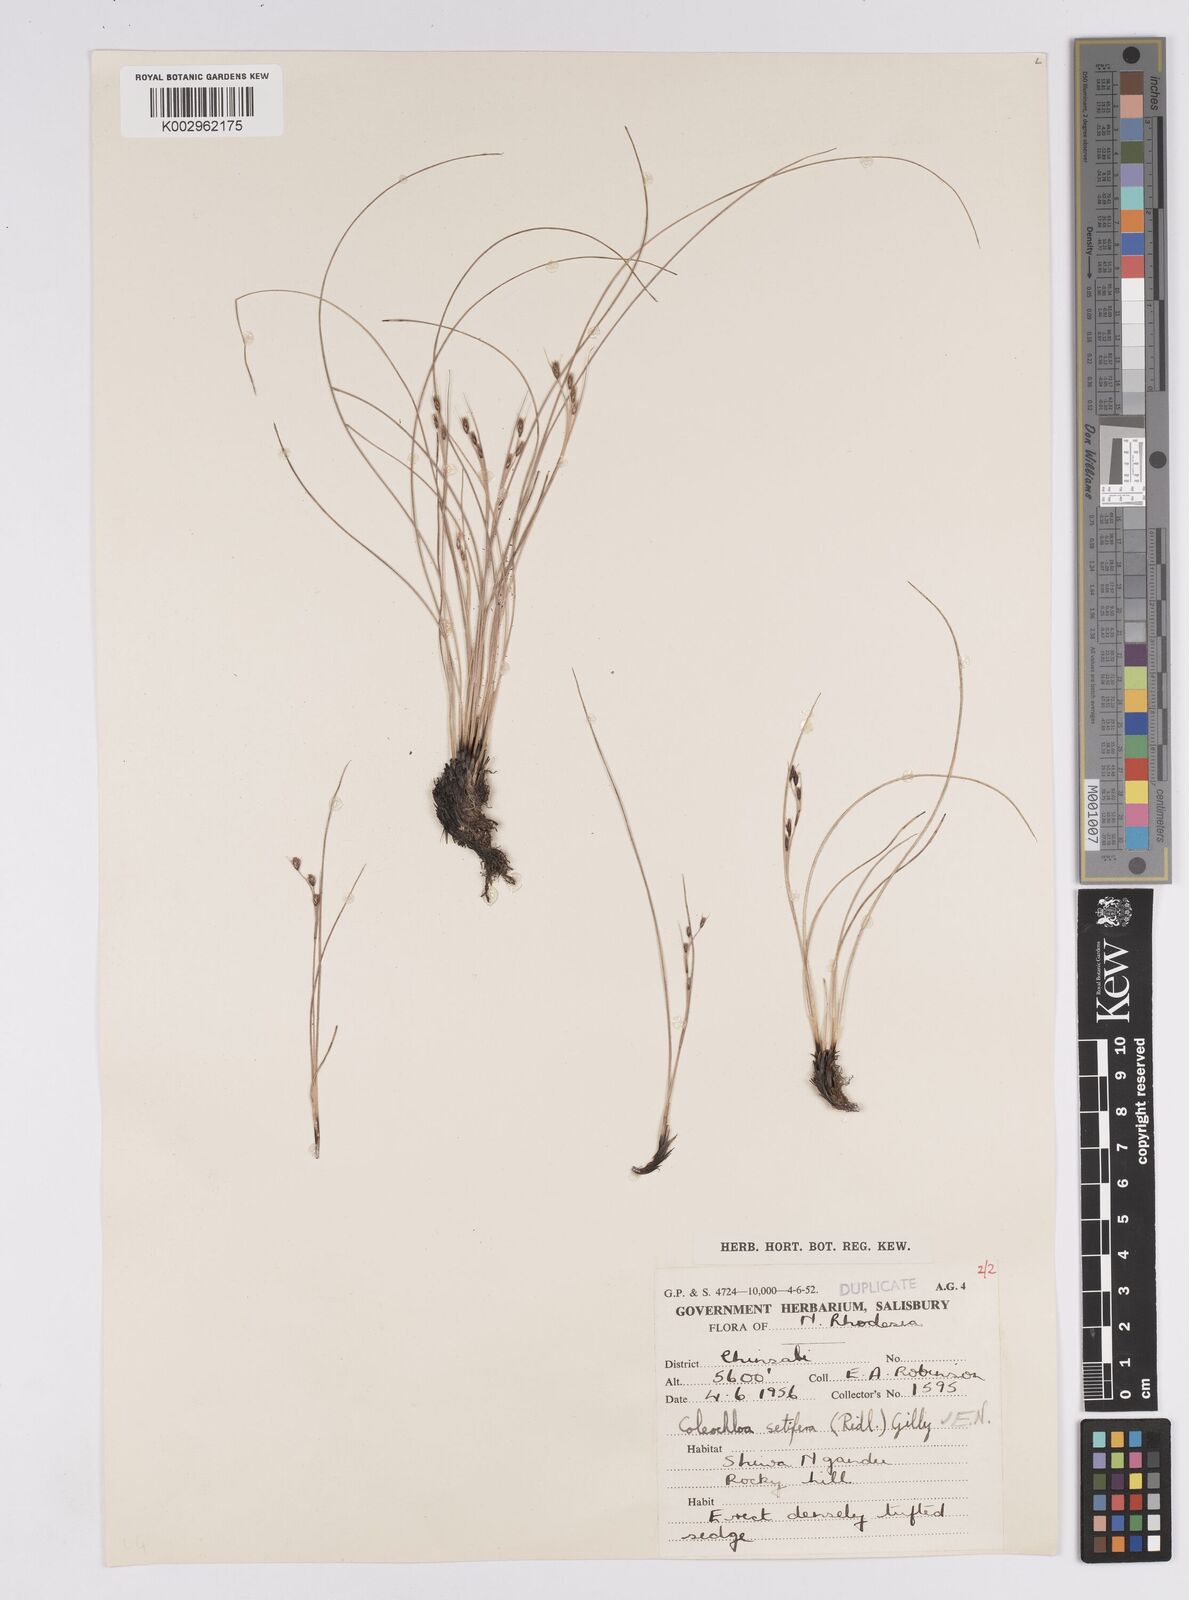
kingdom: Plantae
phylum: Tracheophyta
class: Liliopsida
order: Poales
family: Cyperaceae
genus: Coleochloa
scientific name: Coleochloa setifera
